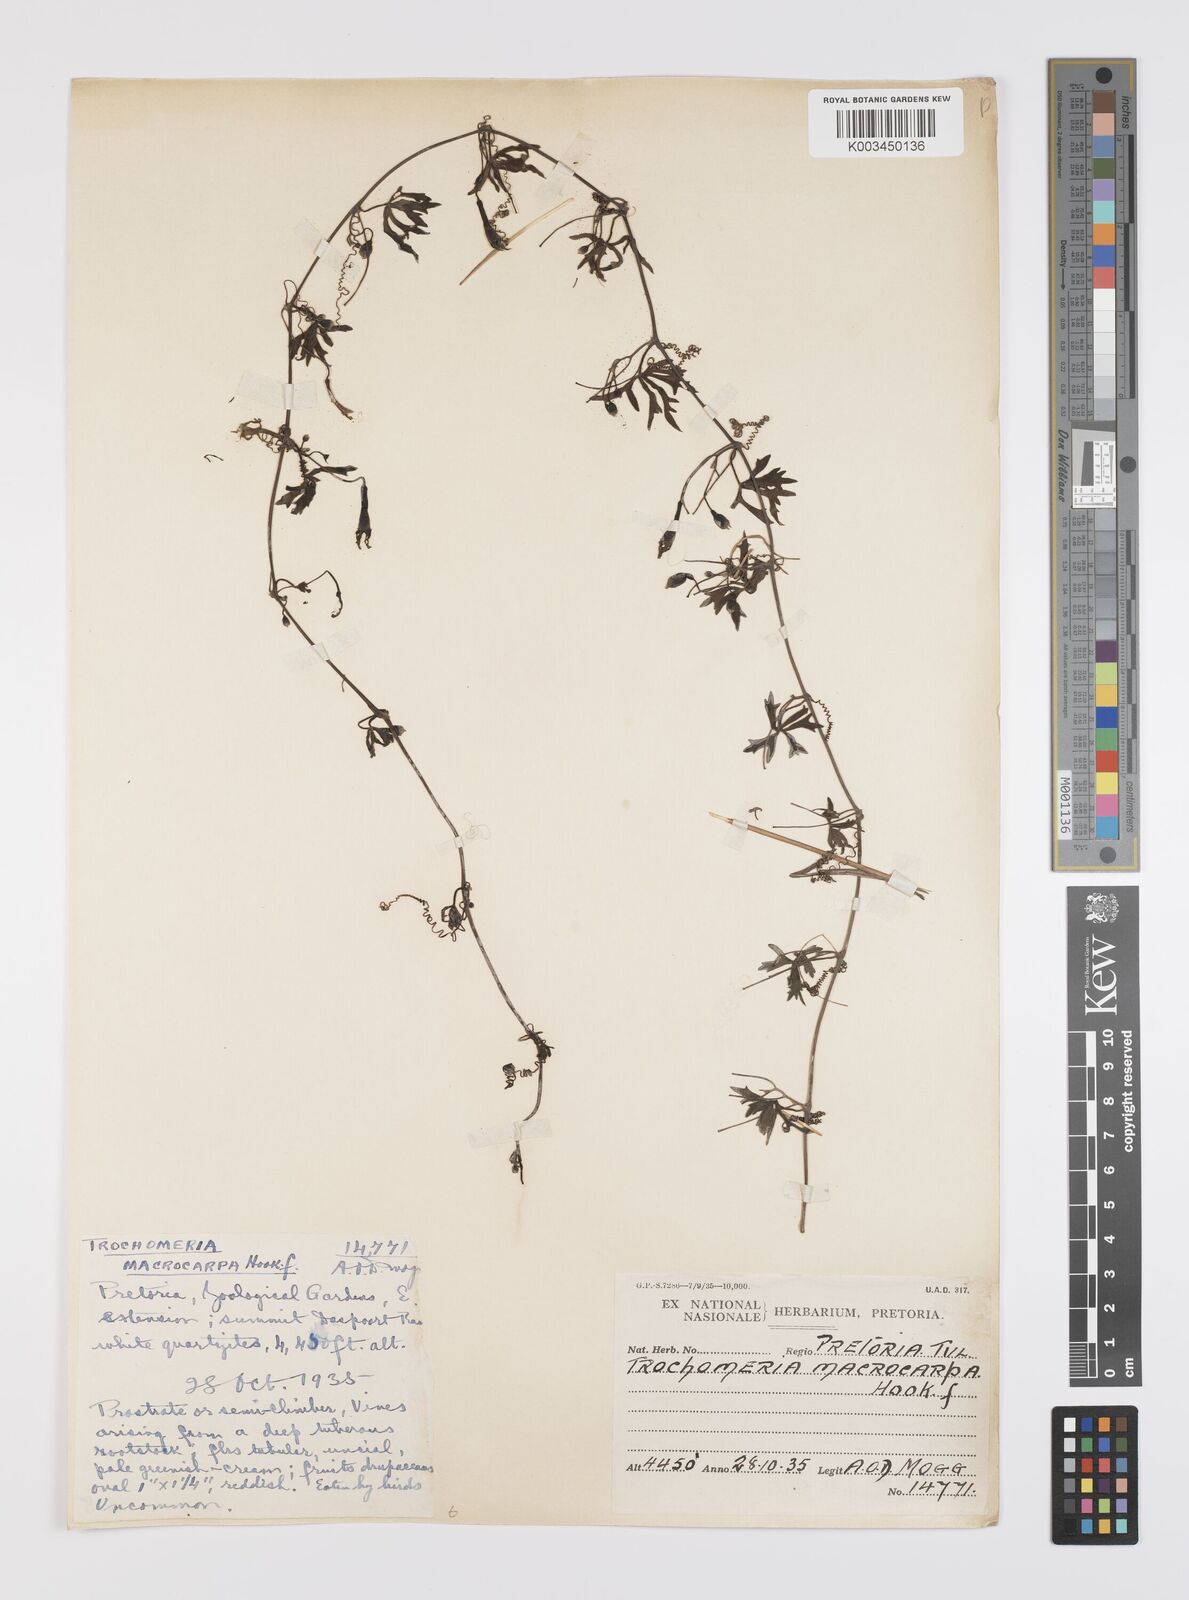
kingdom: Plantae
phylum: Tracheophyta
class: Magnoliopsida
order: Cucurbitales
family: Cucurbitaceae
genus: Trochomeria
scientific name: Trochomeria macrocarpa
